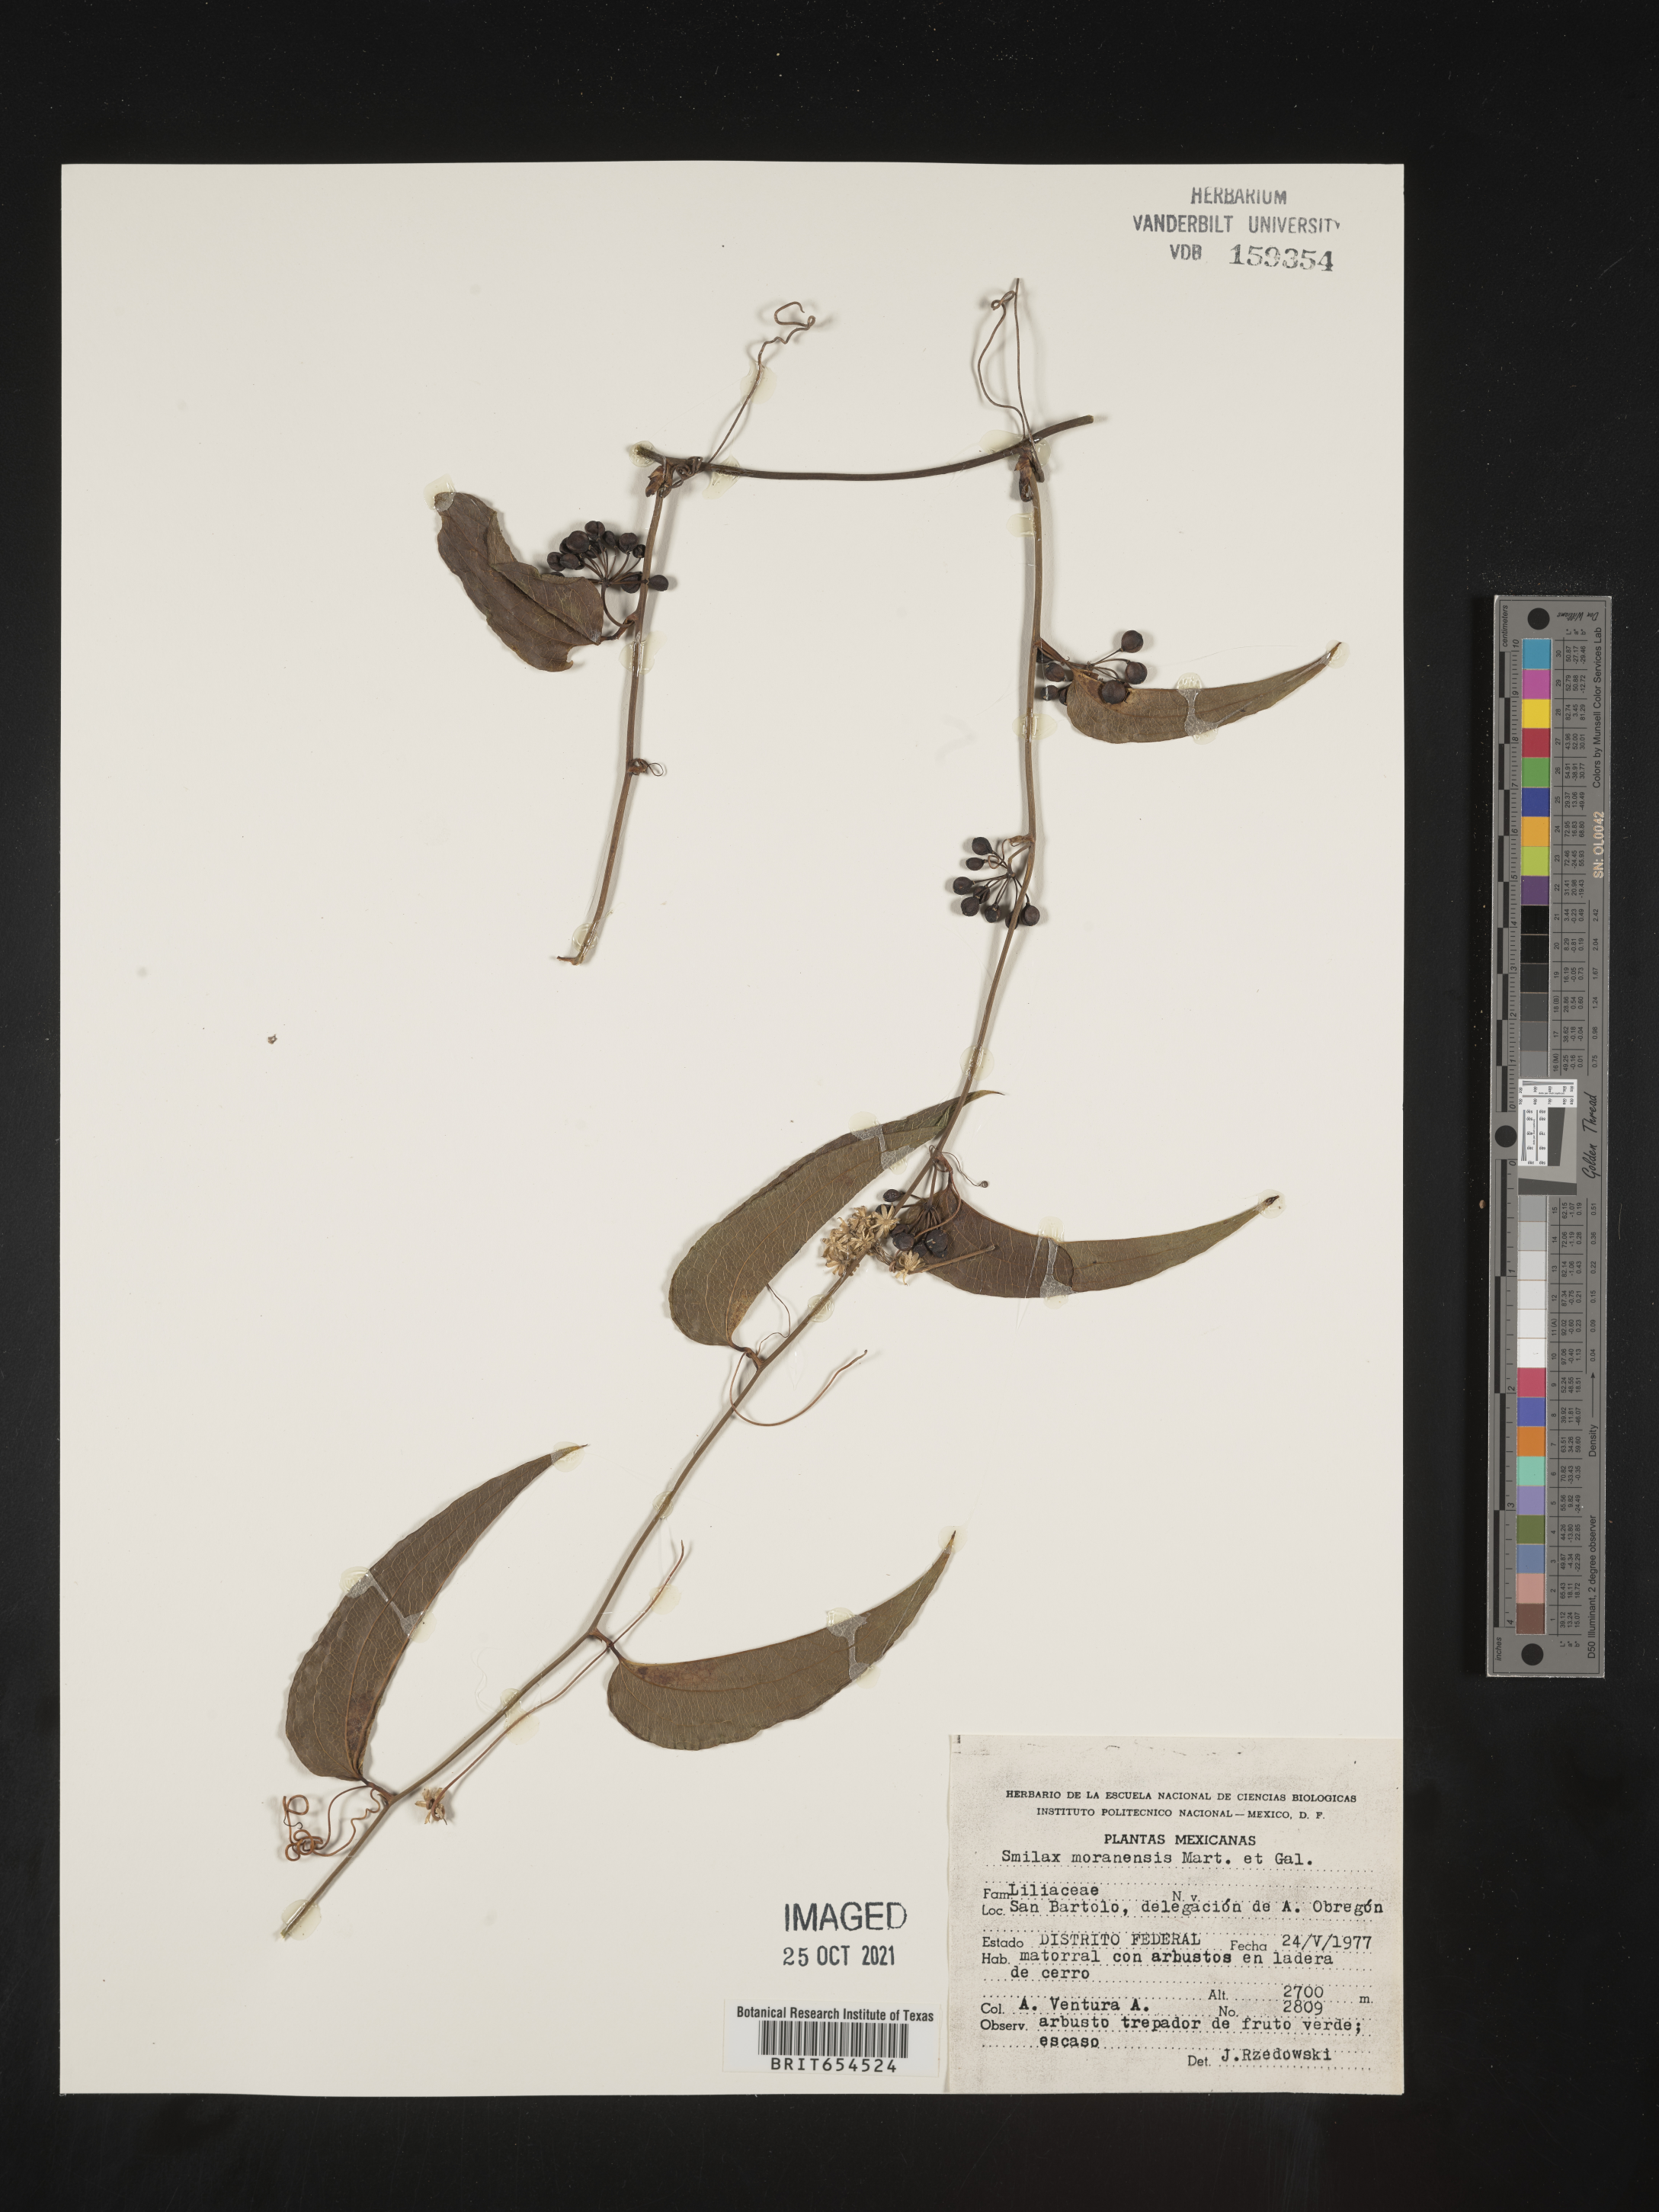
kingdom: Plantae
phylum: Tracheophyta
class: Liliopsida
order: Liliales
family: Smilacaceae
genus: Smilax
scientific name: Smilax
